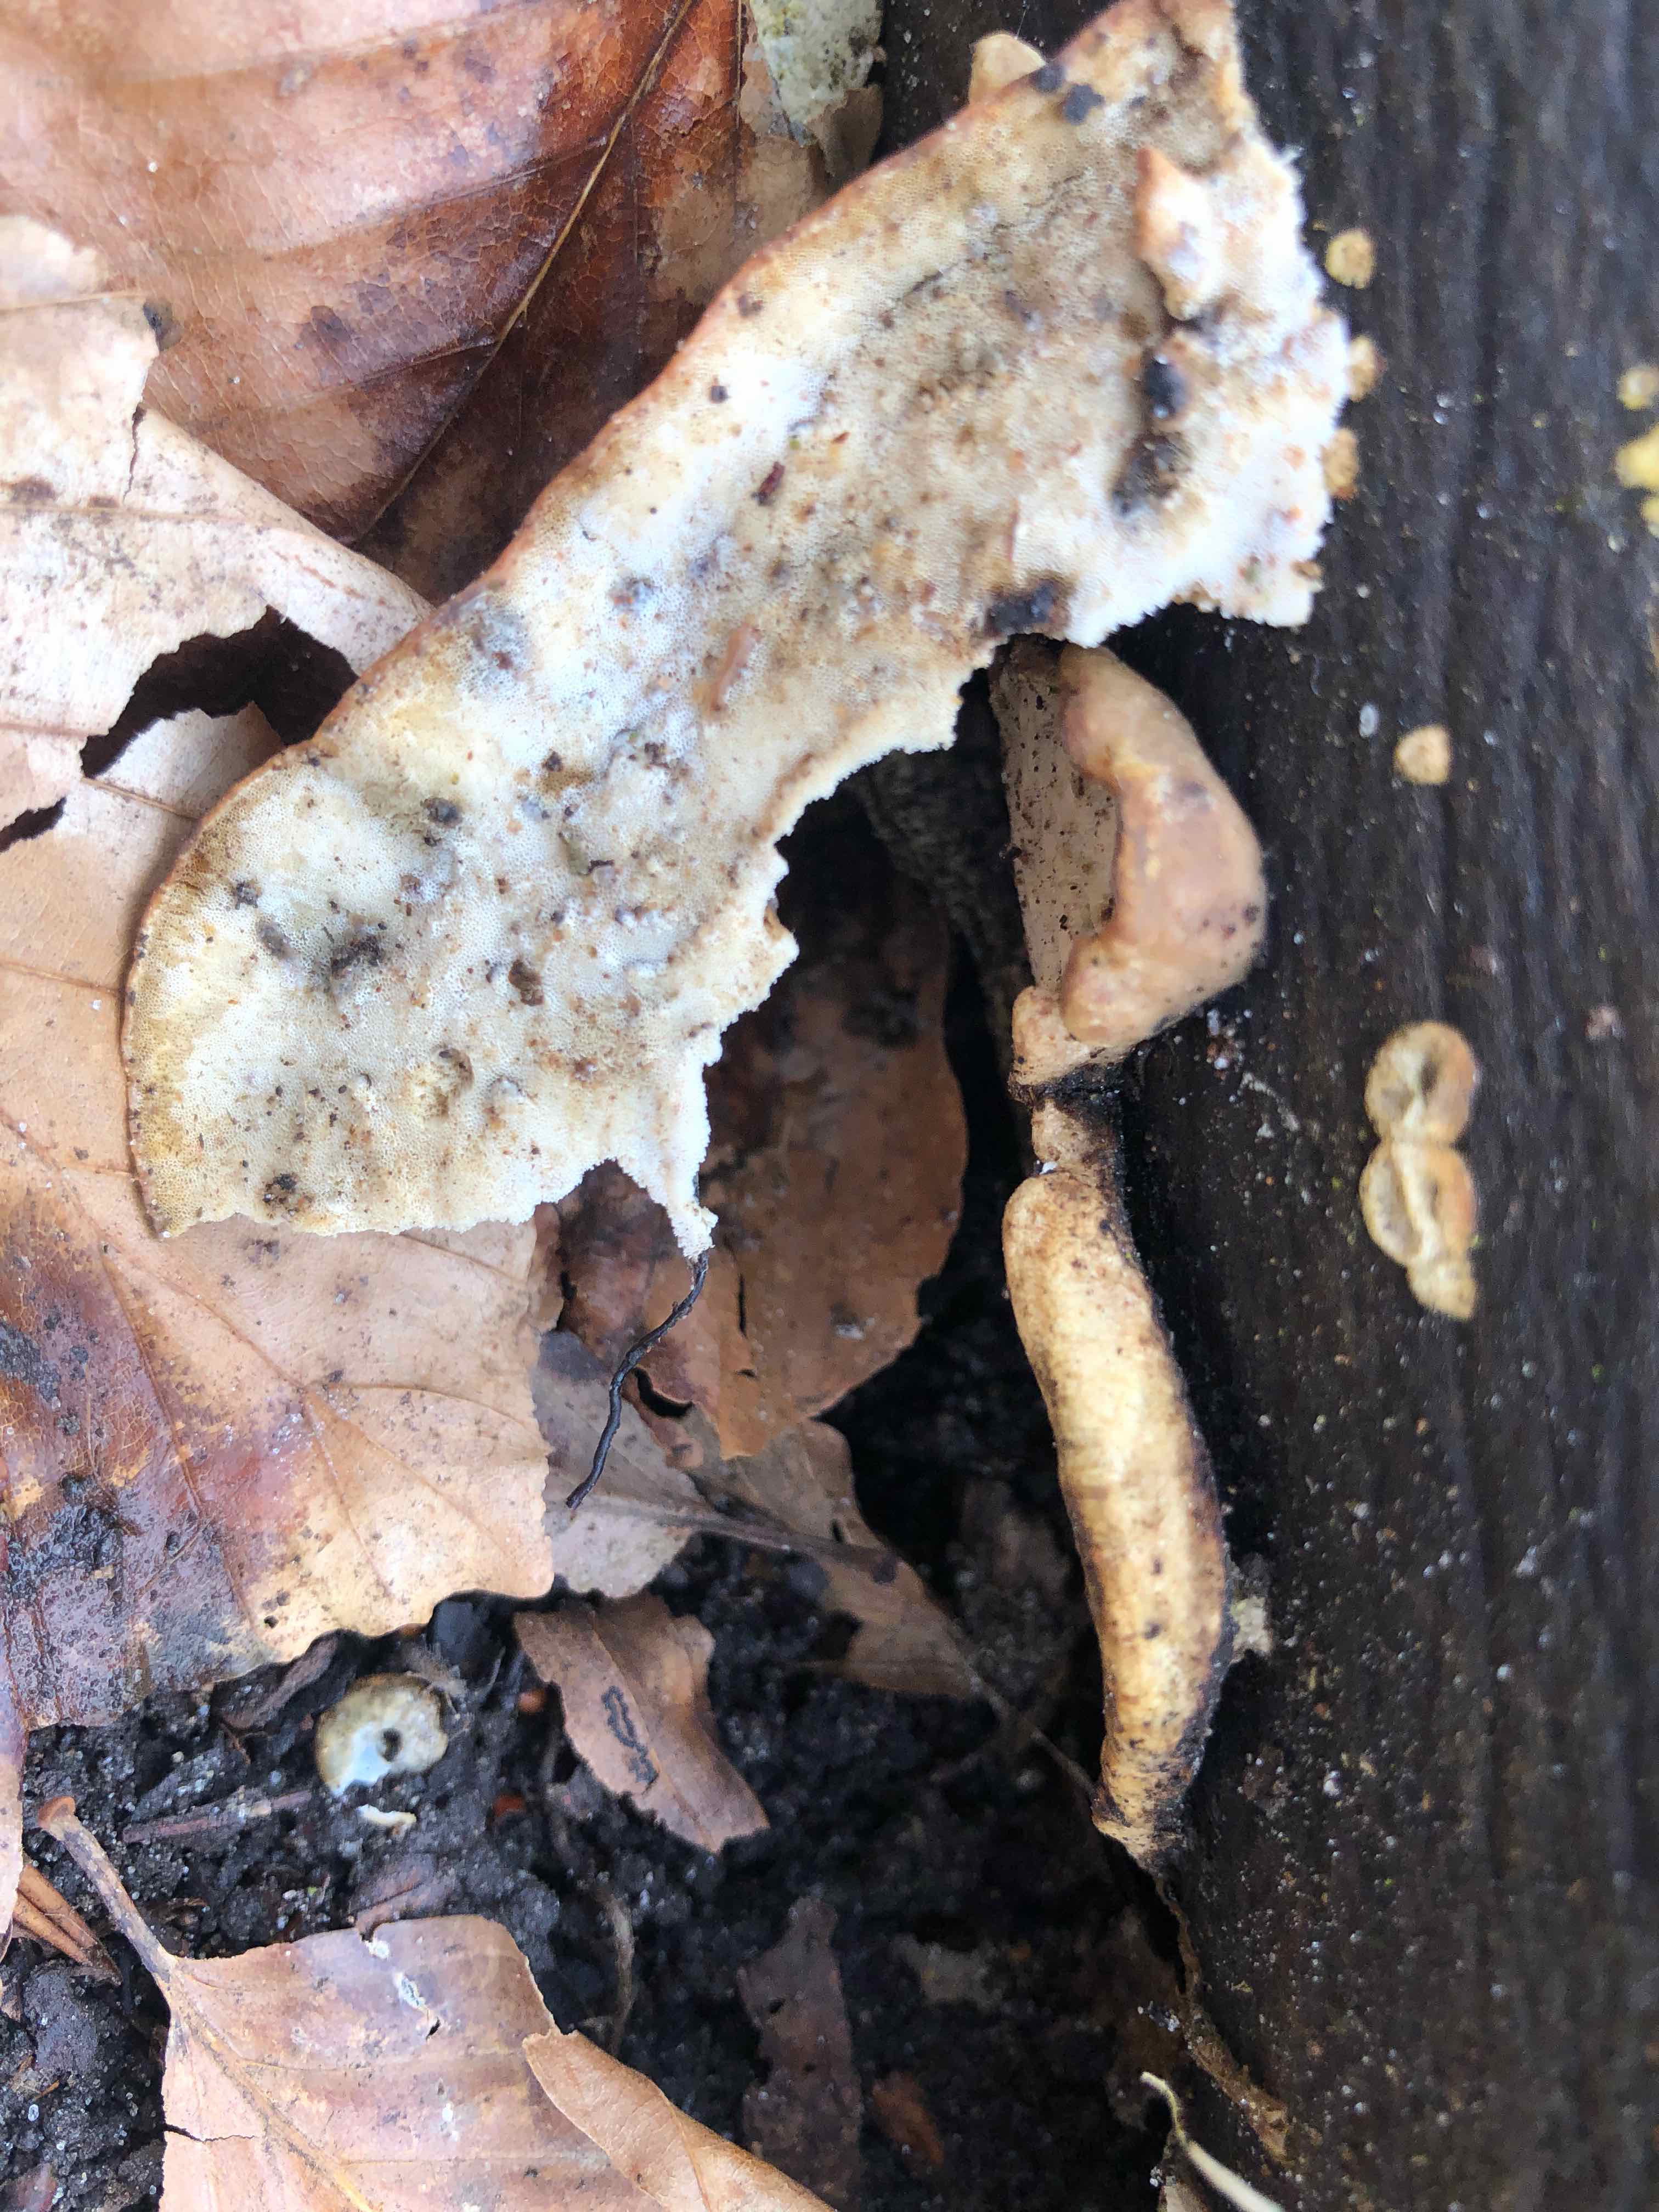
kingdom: Fungi
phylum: Basidiomycota
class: Agaricomycetes
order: Polyporales
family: Incrustoporiaceae
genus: Skeletocutis
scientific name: Skeletocutis nemoralis
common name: stor krystalporesvamp
